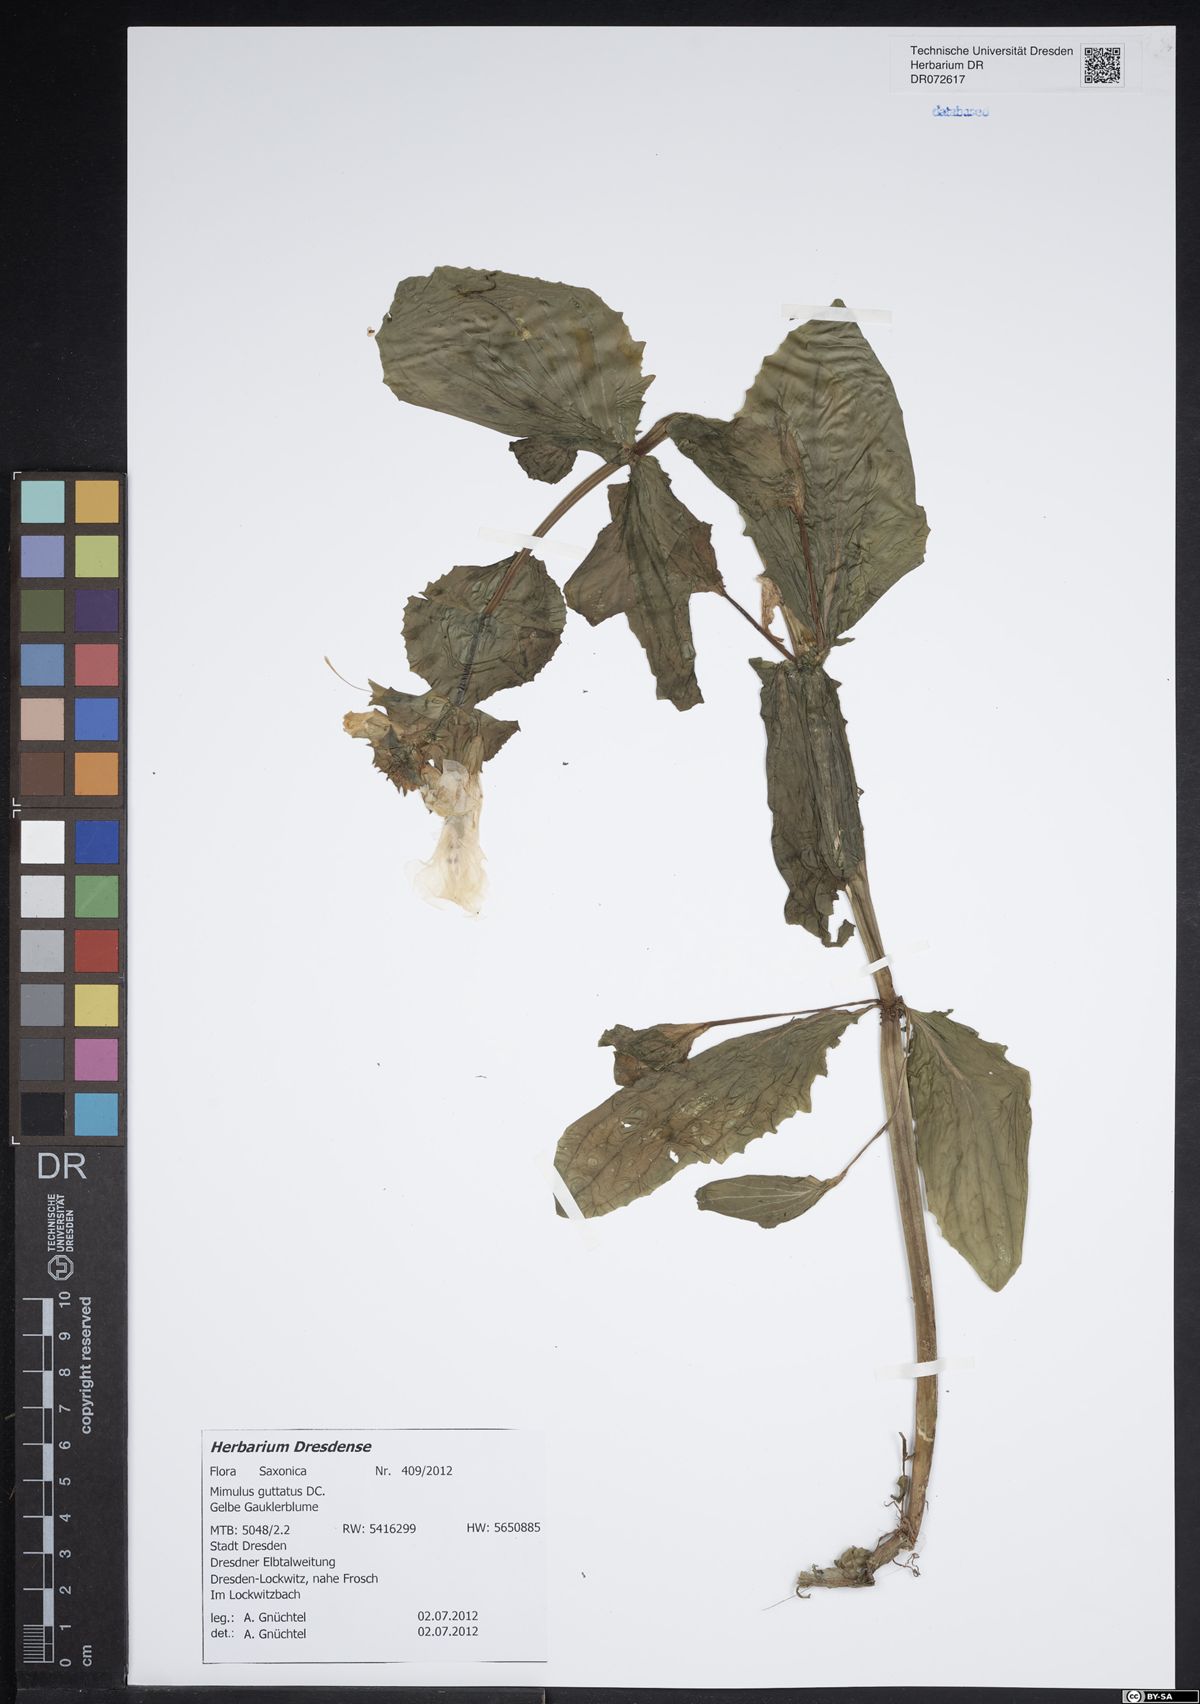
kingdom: Plantae
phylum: Tracheophyta
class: Magnoliopsida
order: Lamiales
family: Phrymaceae
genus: Erythranthe
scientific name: Erythranthe guttata
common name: Monkeyflower
